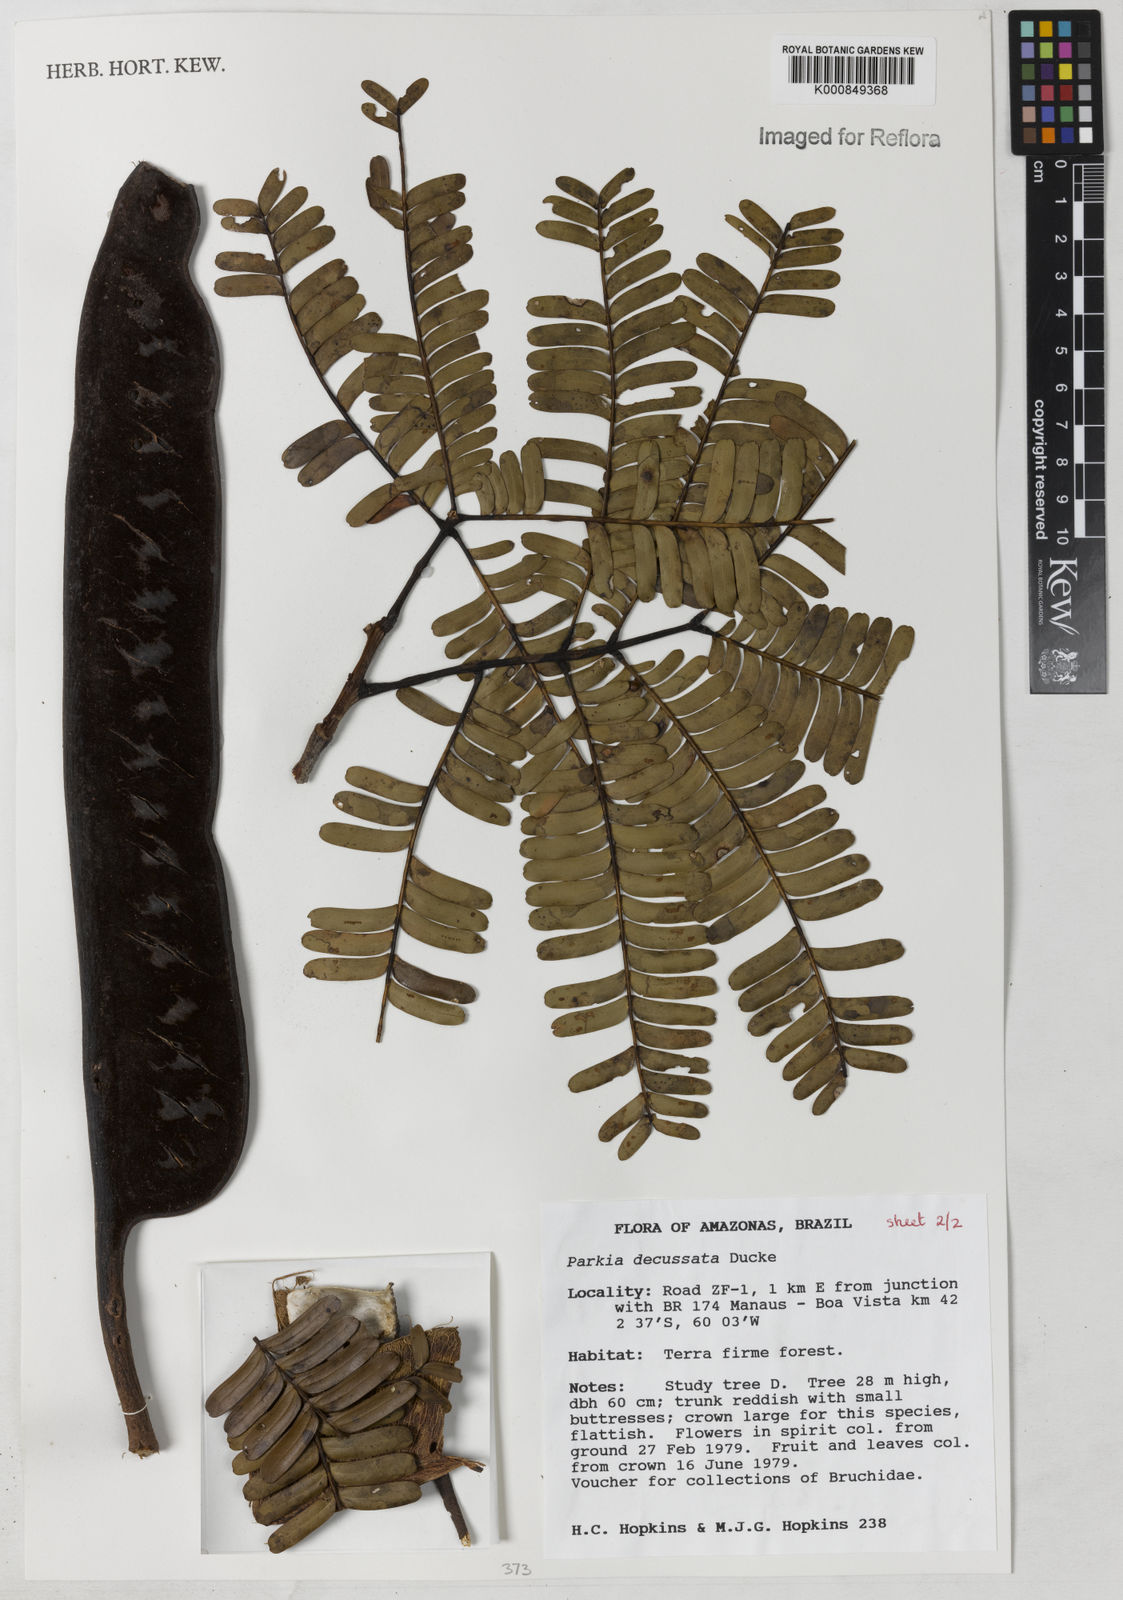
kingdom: Plantae
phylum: Tracheophyta
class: Magnoliopsida
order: Fabales
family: Fabaceae
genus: Parkia
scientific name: Parkia decussata
